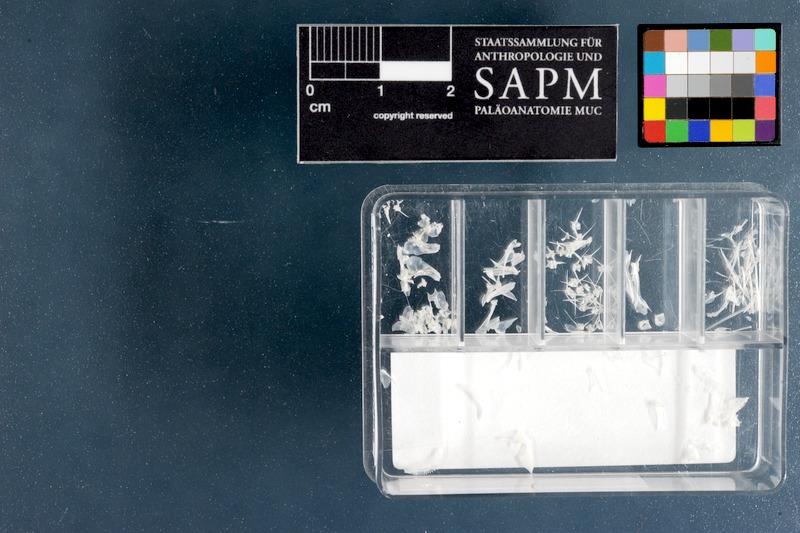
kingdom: Animalia
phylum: Chordata
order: Perciformes
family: Grammatidae
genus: Gramma
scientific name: Gramma loreto
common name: Fairy basslet
